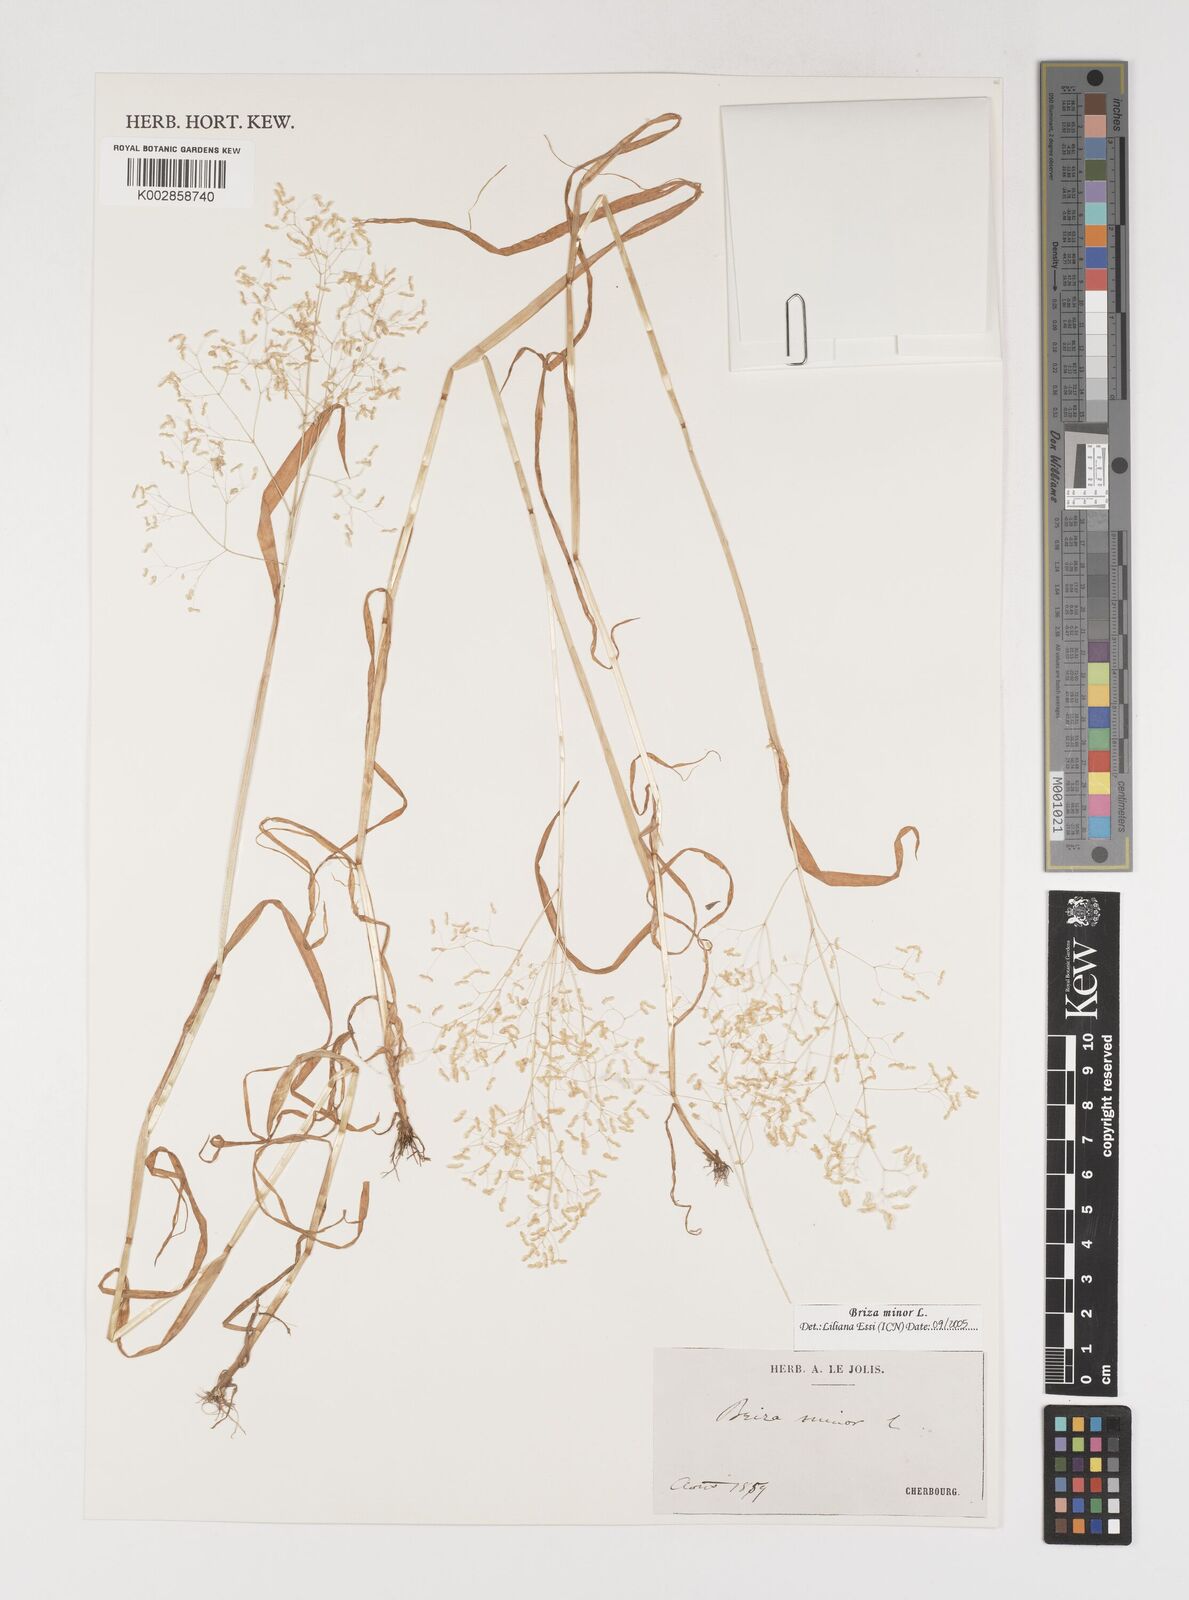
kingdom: Plantae
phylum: Tracheophyta
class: Liliopsida
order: Poales
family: Poaceae
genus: Briza
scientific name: Briza minor
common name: Lesser quaking-grass
